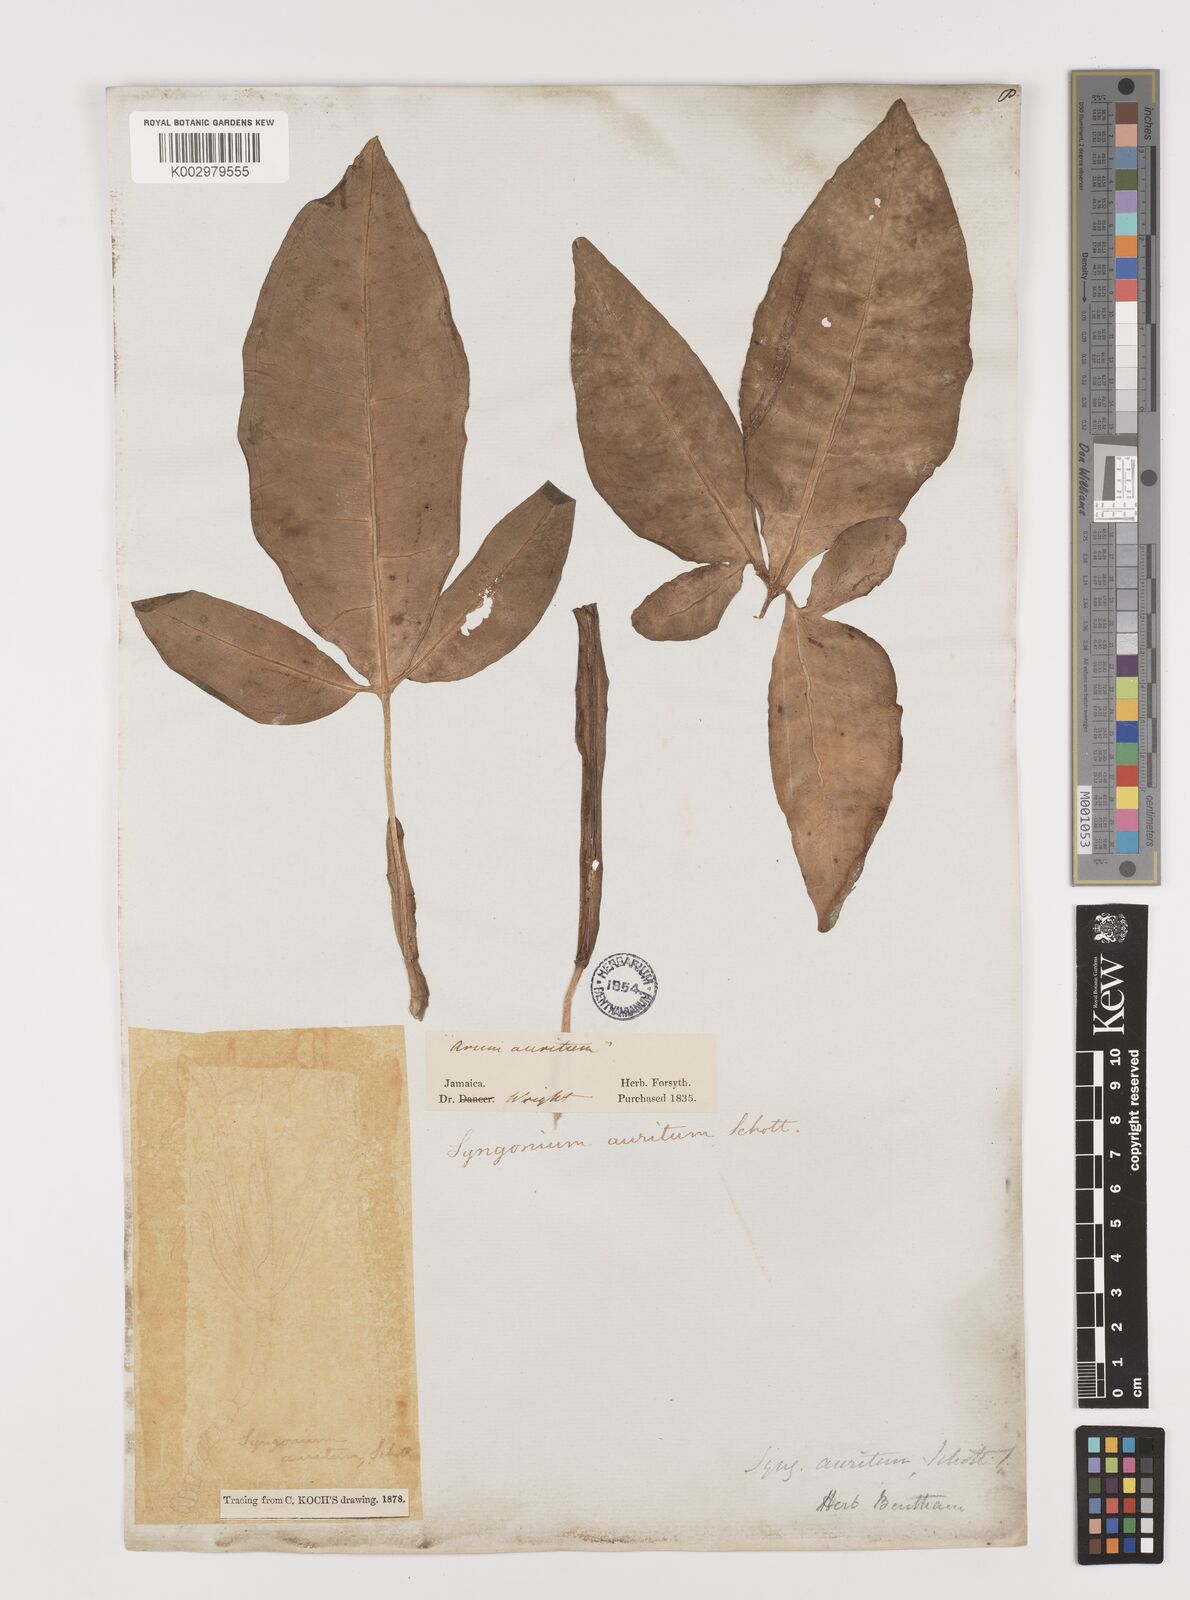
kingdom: Plantae
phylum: Tracheophyta
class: Liliopsida
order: Alismatales
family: Araceae
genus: Syngonium
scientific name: Syngonium auritum
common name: Five-fingers
